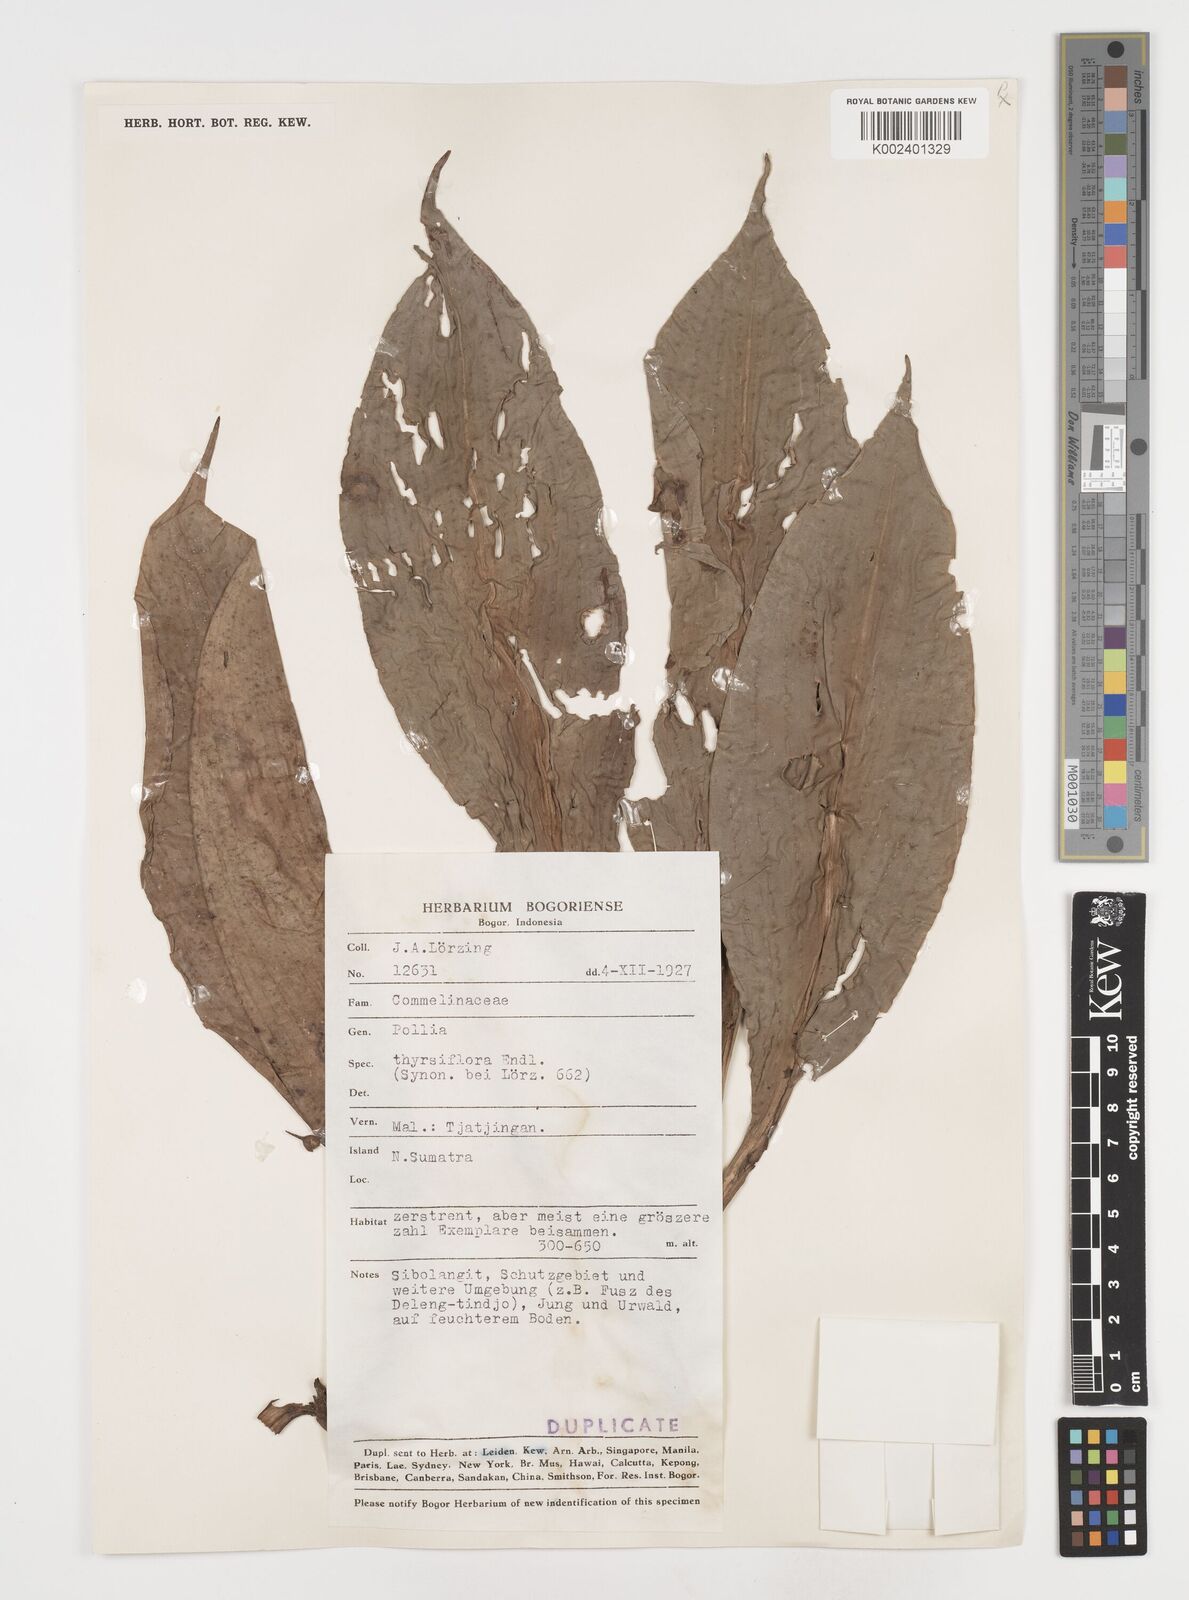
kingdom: Plantae
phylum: Tracheophyta
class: Liliopsida
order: Commelinales
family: Commelinaceae
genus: Pollia
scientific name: Pollia thyrsiflora
